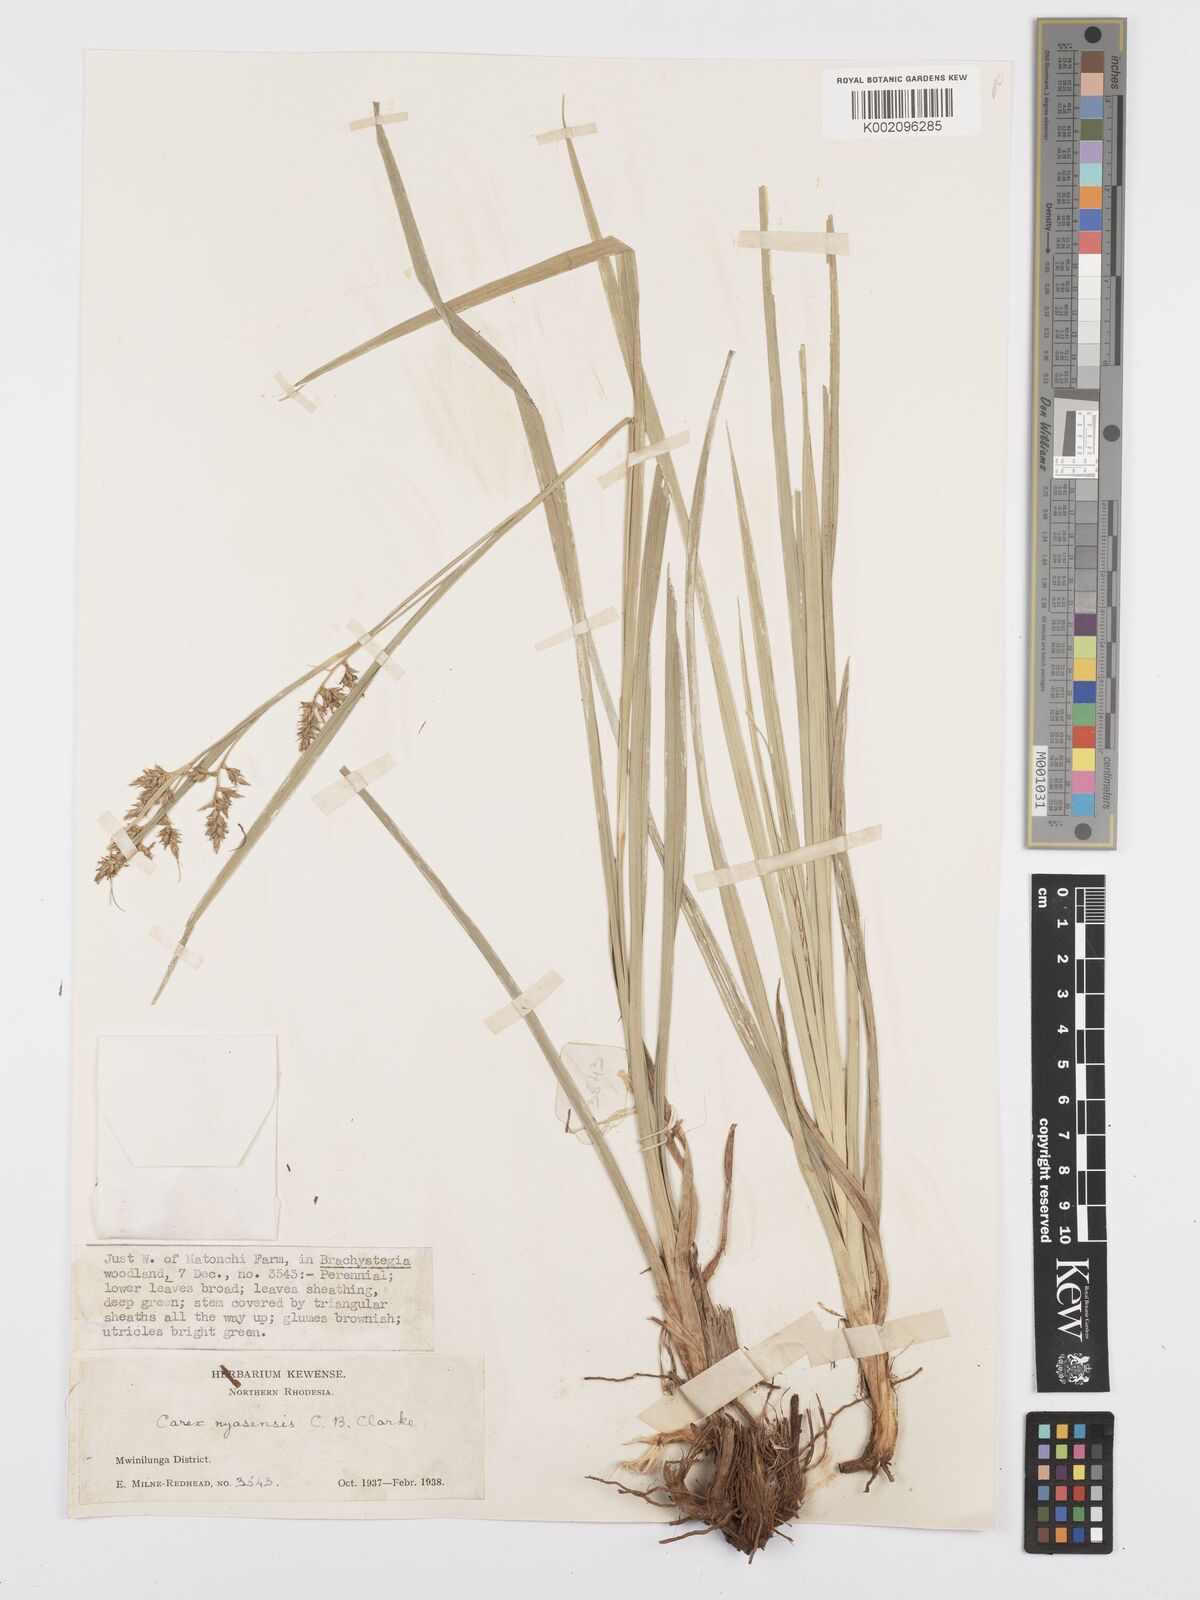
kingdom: Plantae
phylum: Tracheophyta
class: Liliopsida
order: Poales
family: Cyperaceae
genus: Carex
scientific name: Carex spicatopaniculata
